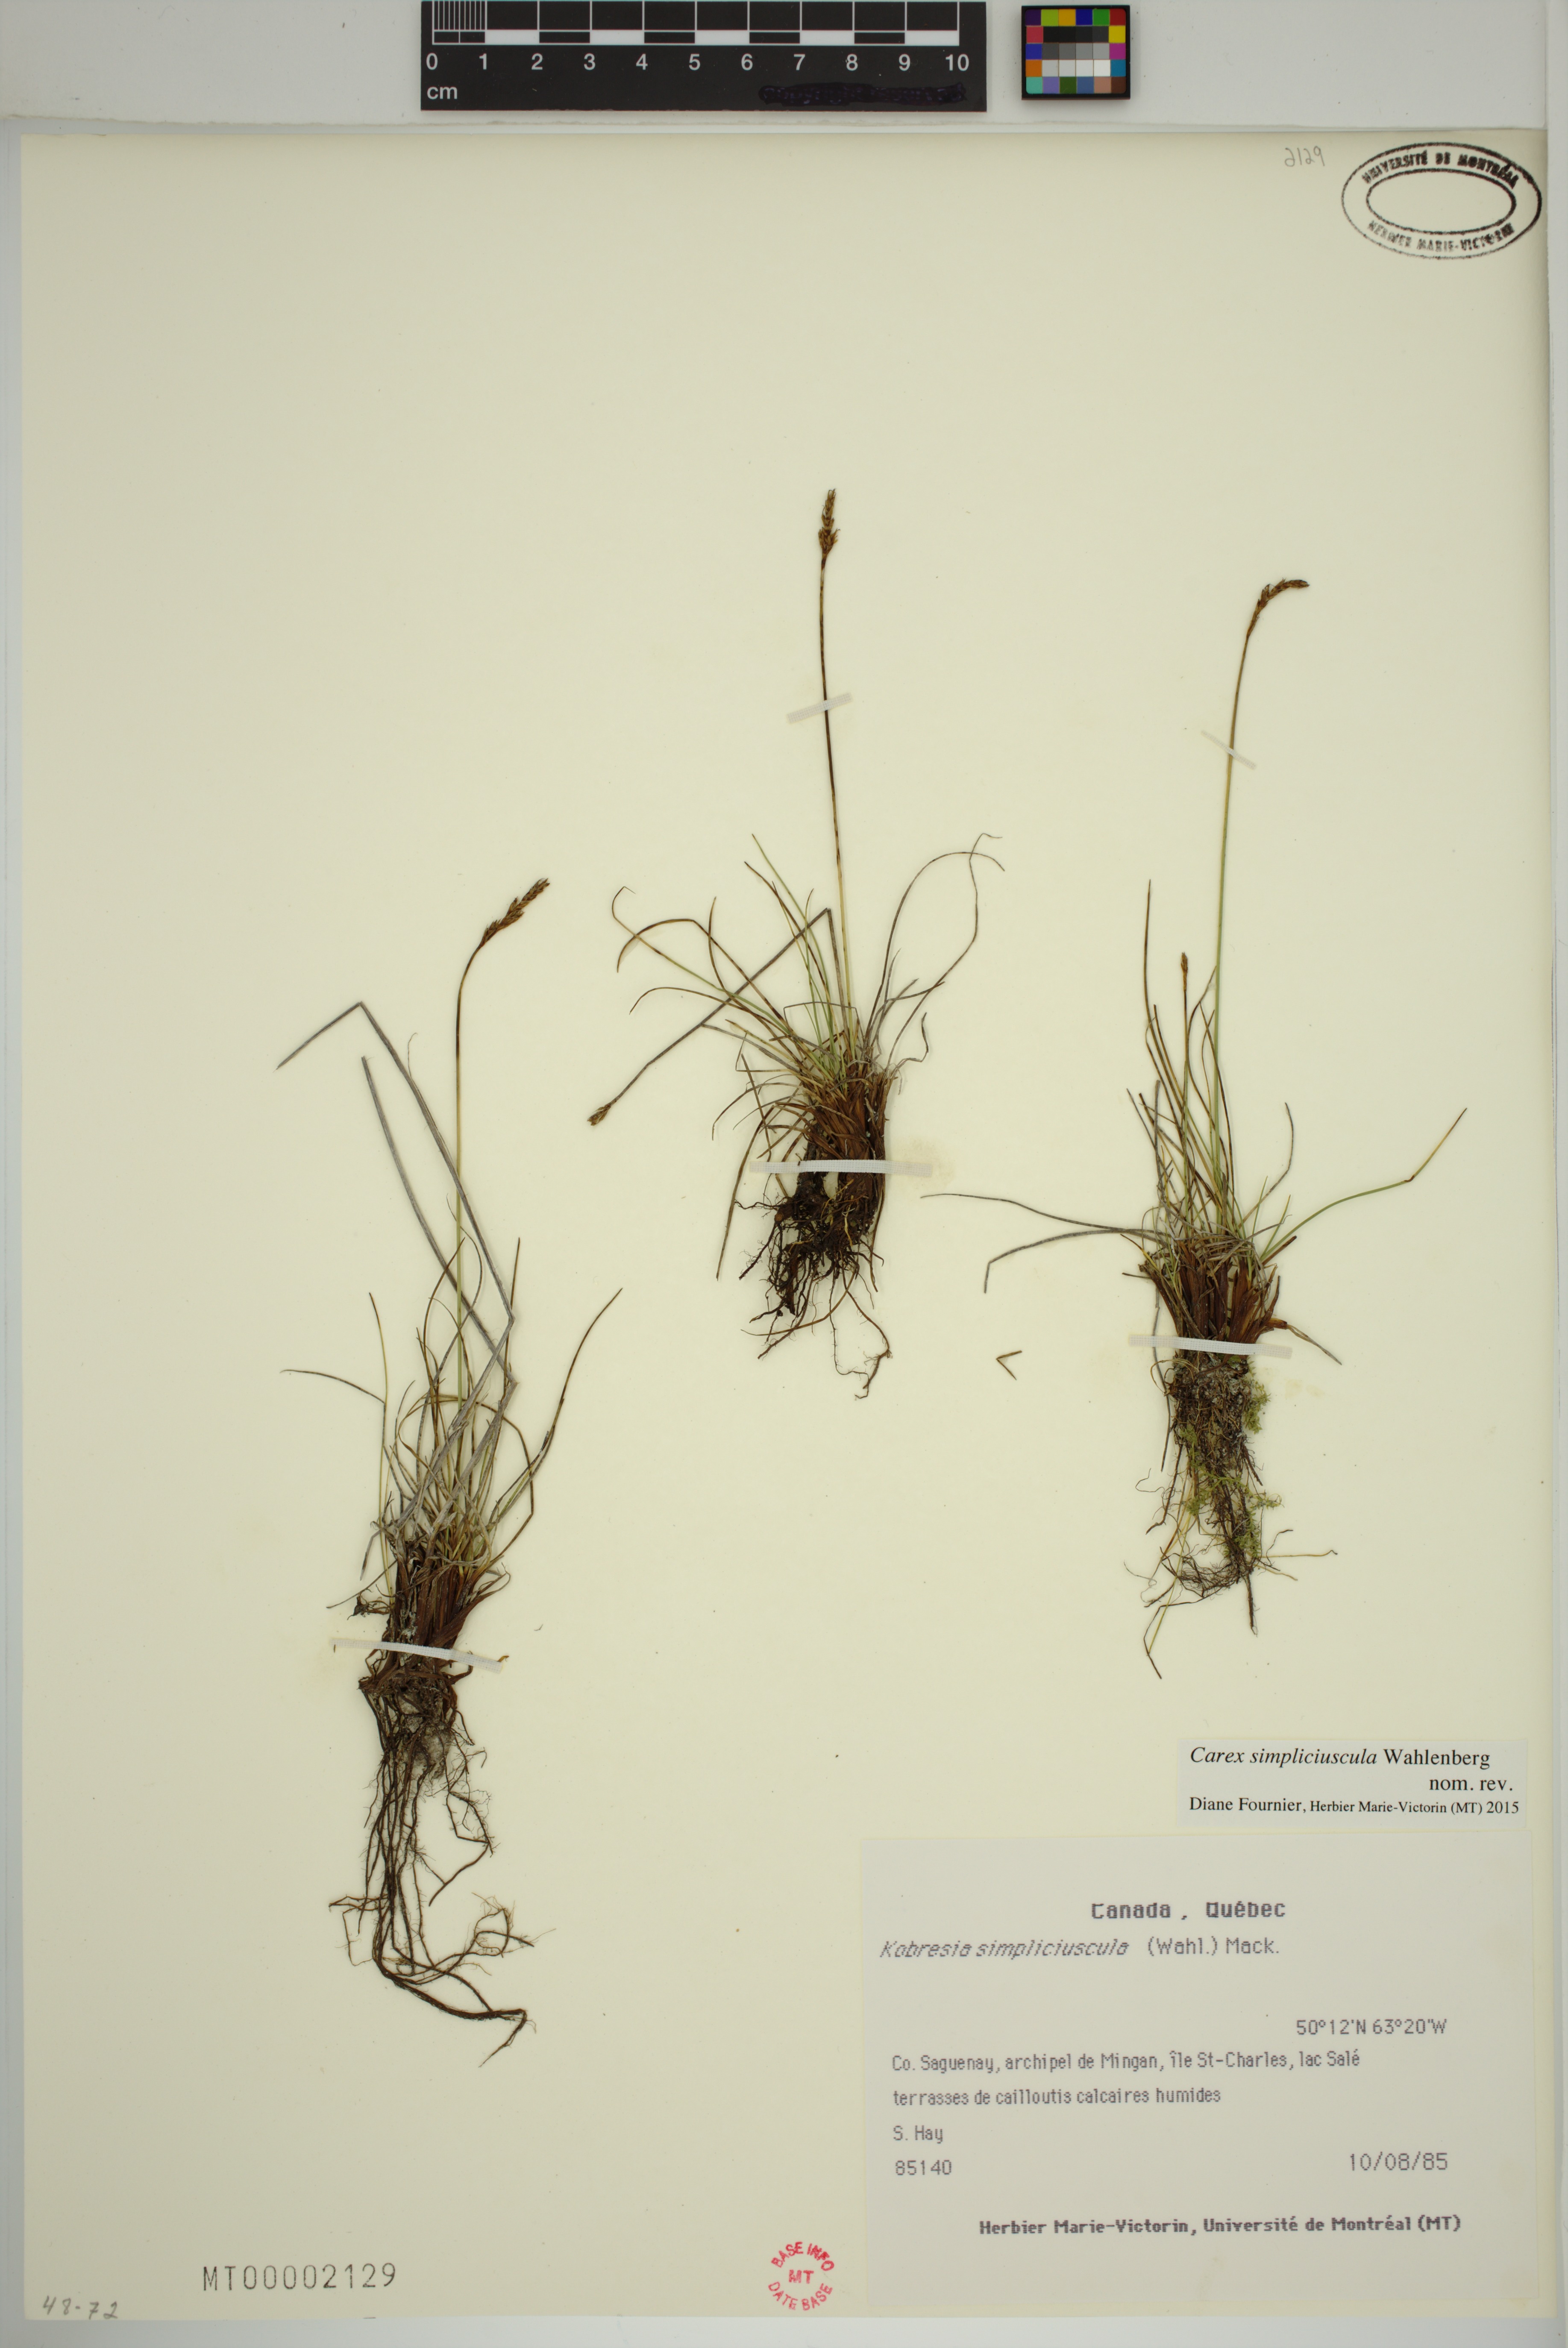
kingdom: Plantae
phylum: Tracheophyta
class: Liliopsida
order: Poales
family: Cyperaceae
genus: Carex
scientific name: Carex simpliciuscula
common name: Simple bog sedge
